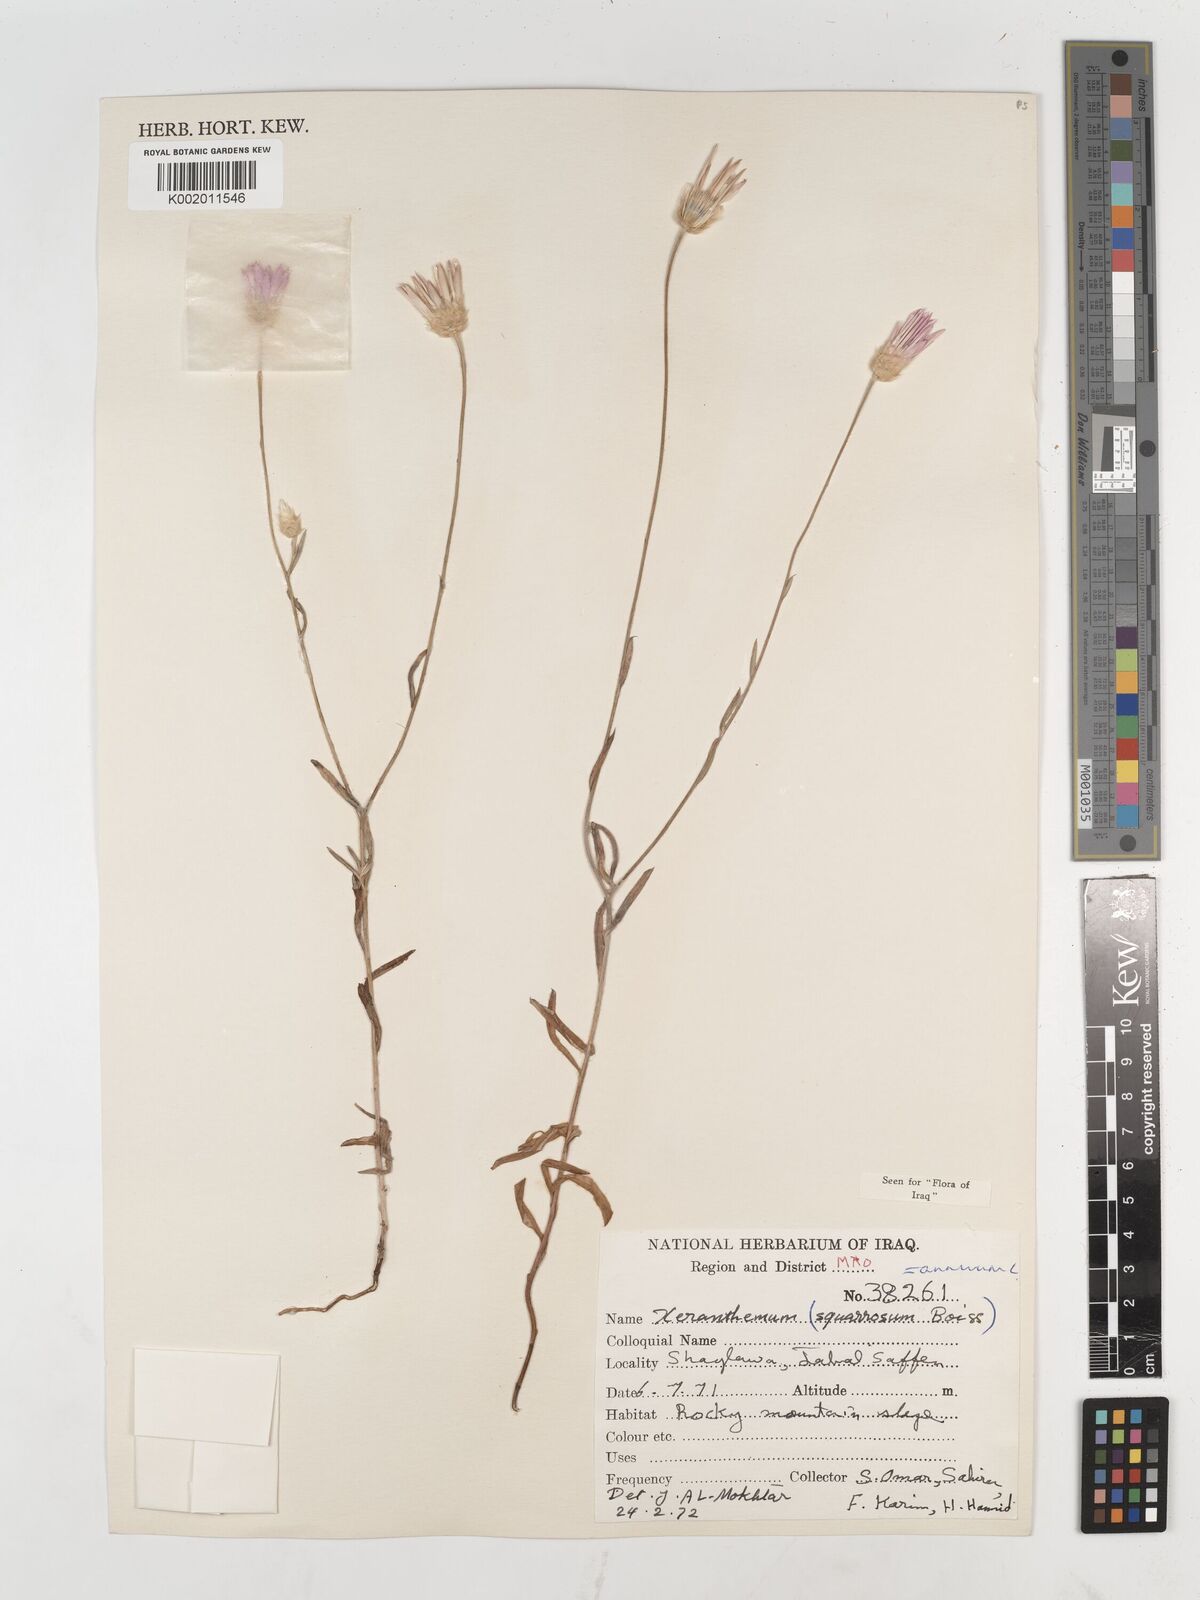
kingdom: Plantae
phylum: Tracheophyta
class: Magnoliopsida
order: Asterales
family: Asteraceae
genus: Xeranthemum
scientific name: Xeranthemum annuum
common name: Immortelle
